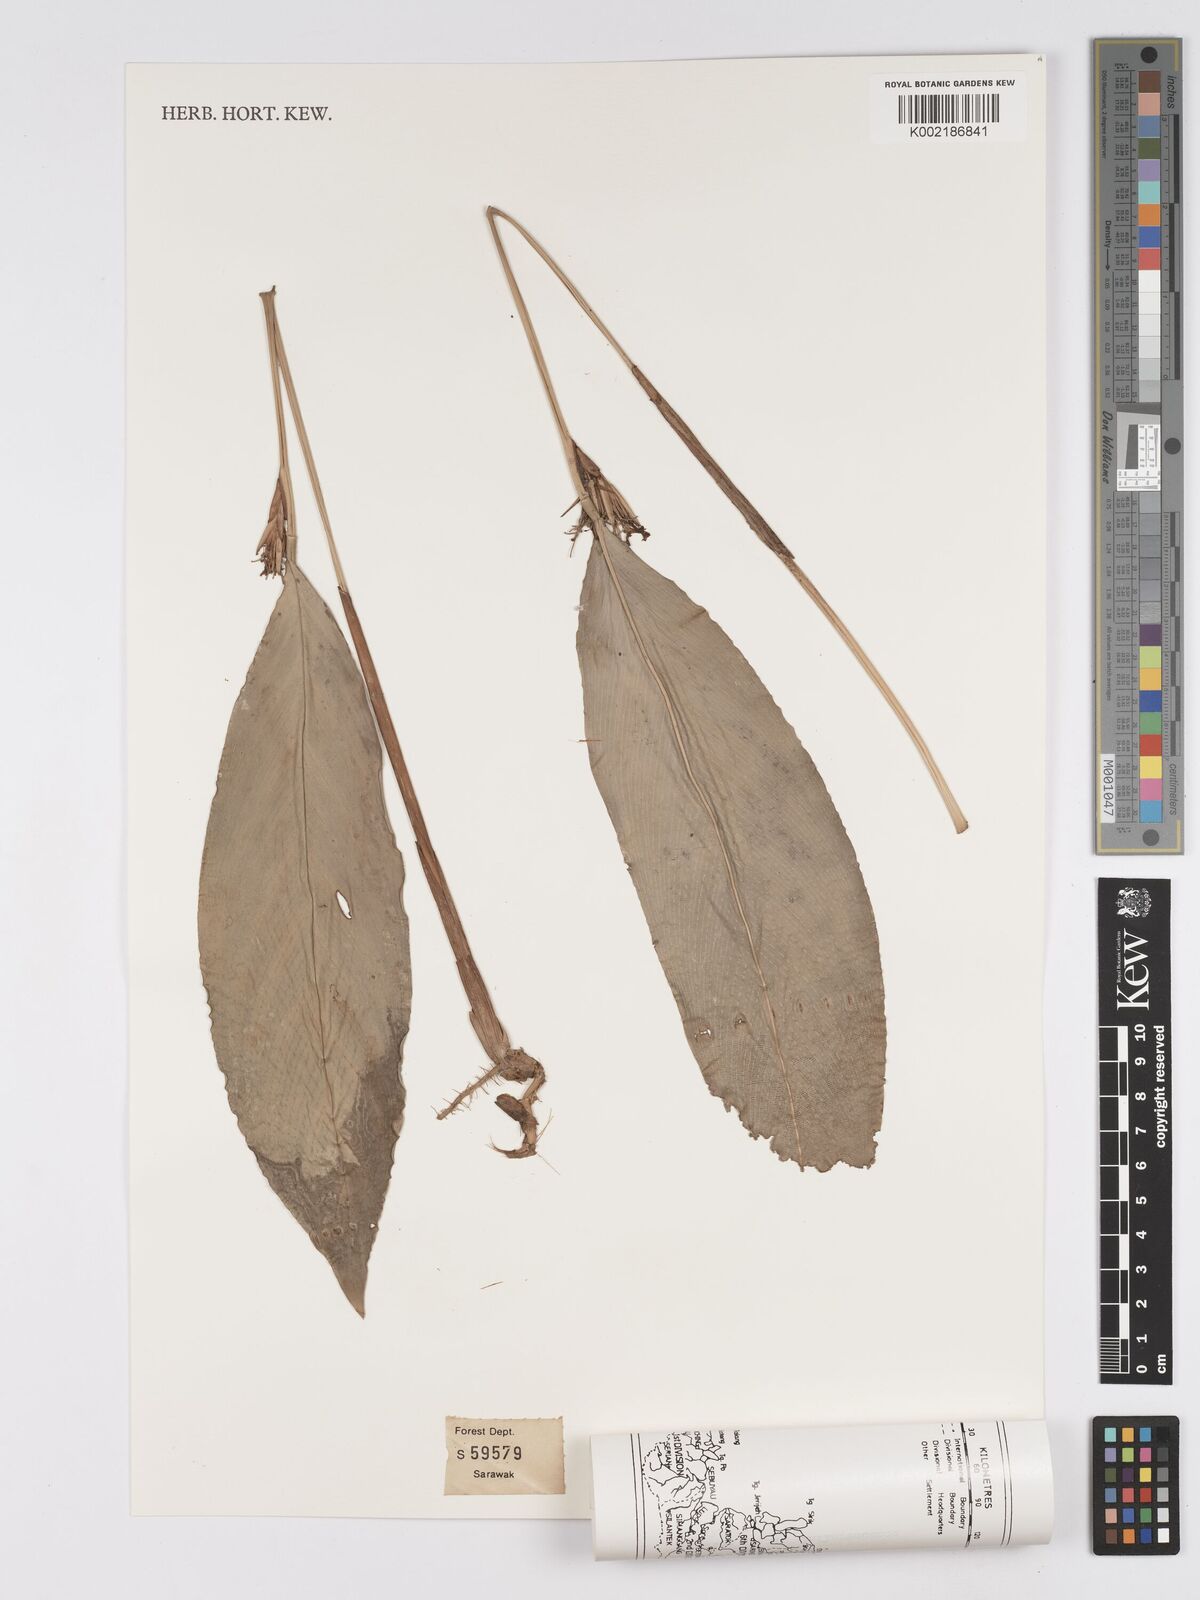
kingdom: Plantae
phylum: Tracheophyta
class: Liliopsida
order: Zingiberales
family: Marantaceae
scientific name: Marantaceae
